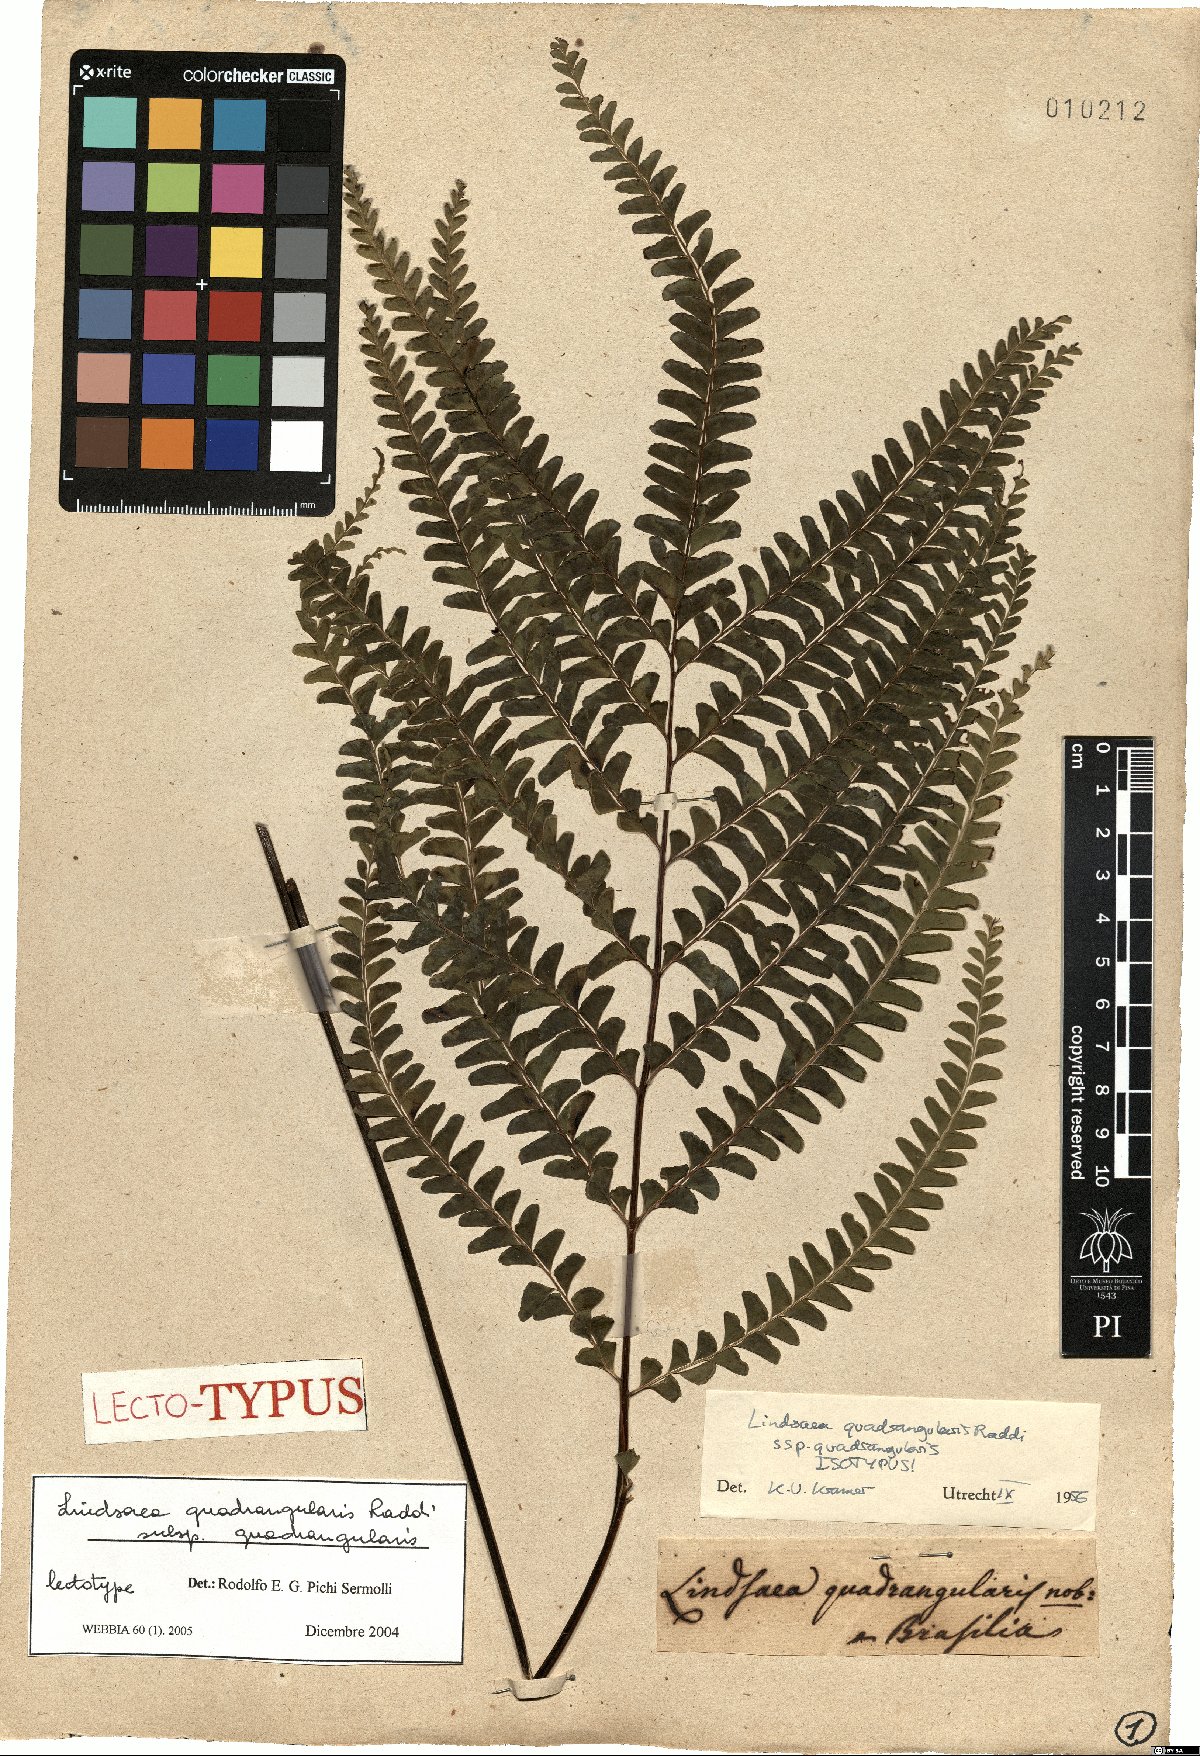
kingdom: Plantae
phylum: Tracheophyta
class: Polypodiopsida
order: Polypodiales
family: Lindsaeaceae
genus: Lindsaea
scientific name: Lindsaea quadrangularis
